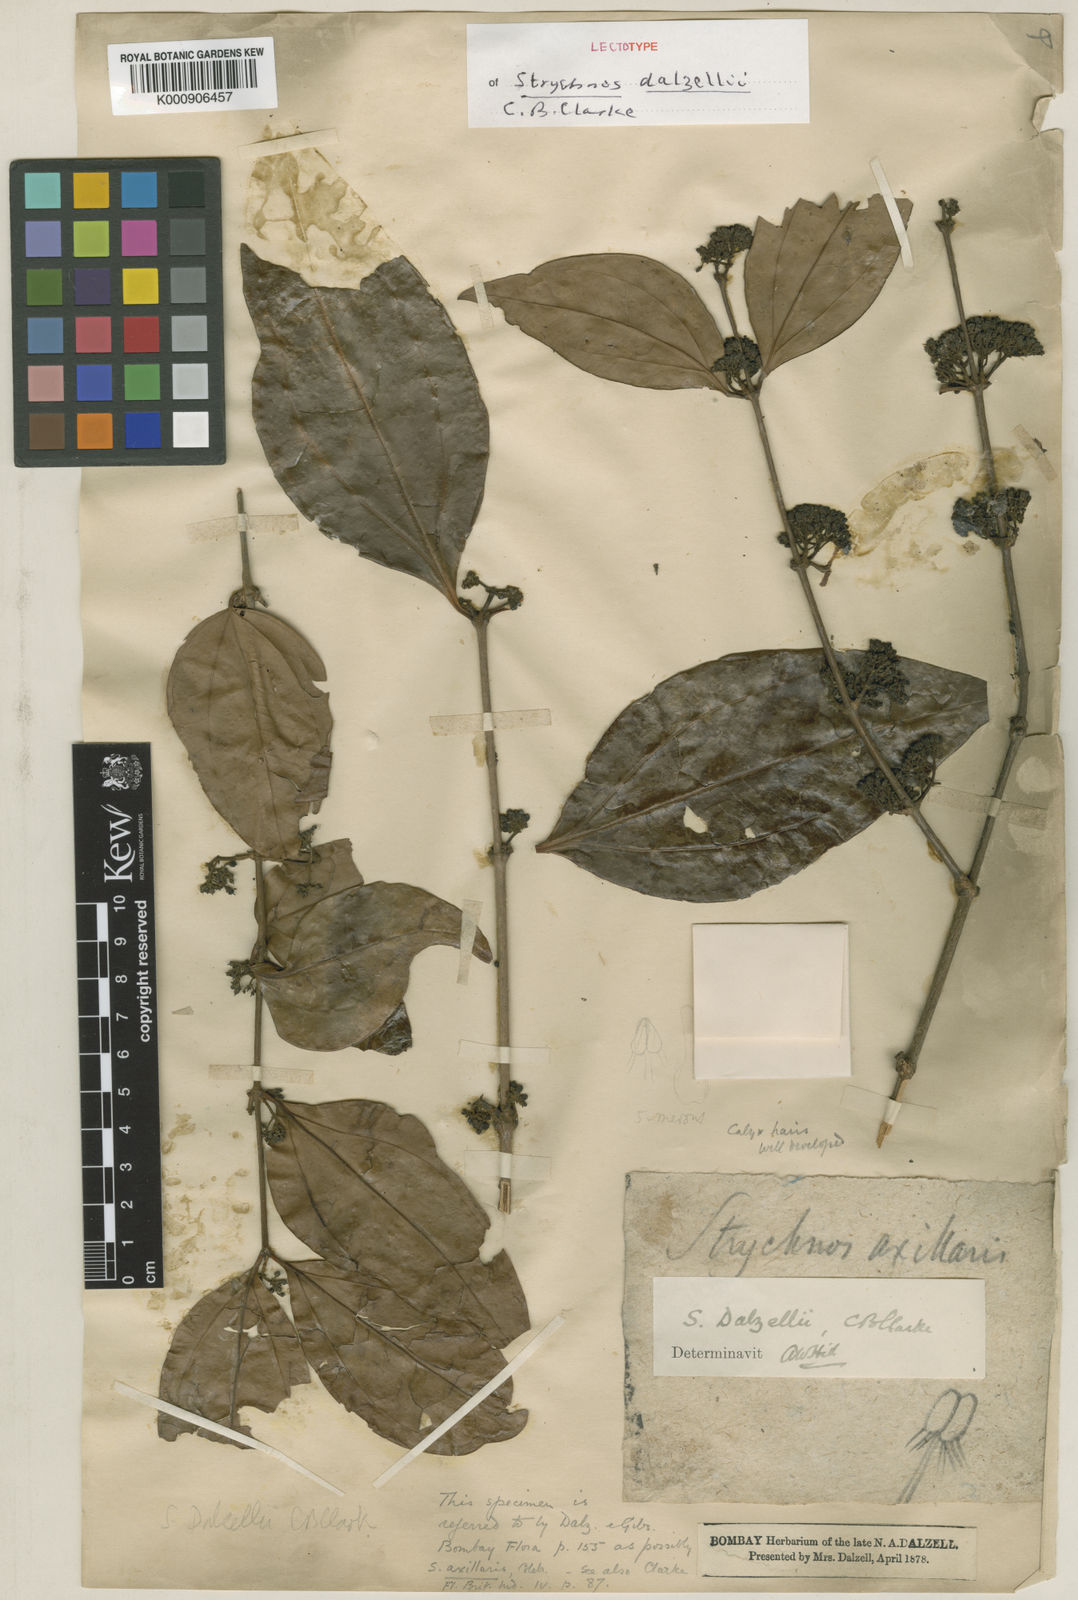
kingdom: Plantae
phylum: Tracheophyta
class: Magnoliopsida
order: Gentianales
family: Loganiaceae
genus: Strychnos
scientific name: Strychnos dalzellii
